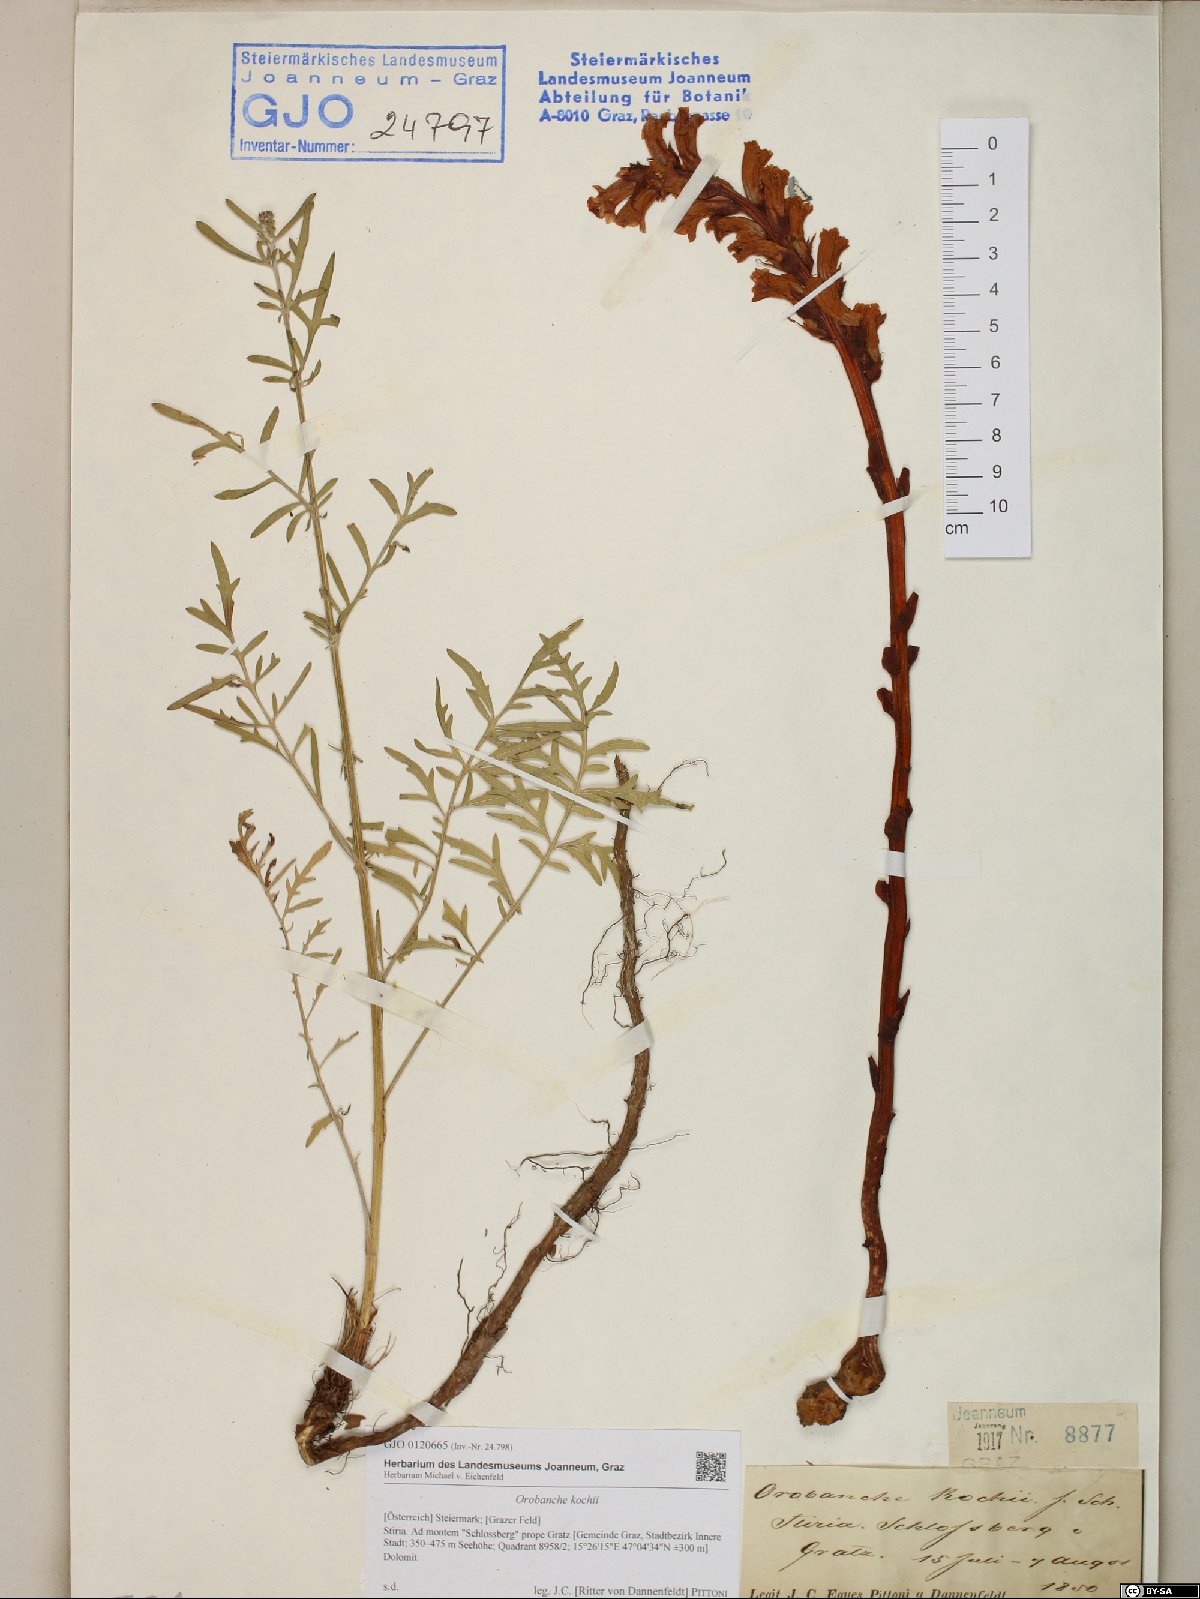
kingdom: Plantae
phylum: Tracheophyta
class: Magnoliopsida
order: Lamiales
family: Orobanchaceae
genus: Orobanche
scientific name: Orobanche centaurina
